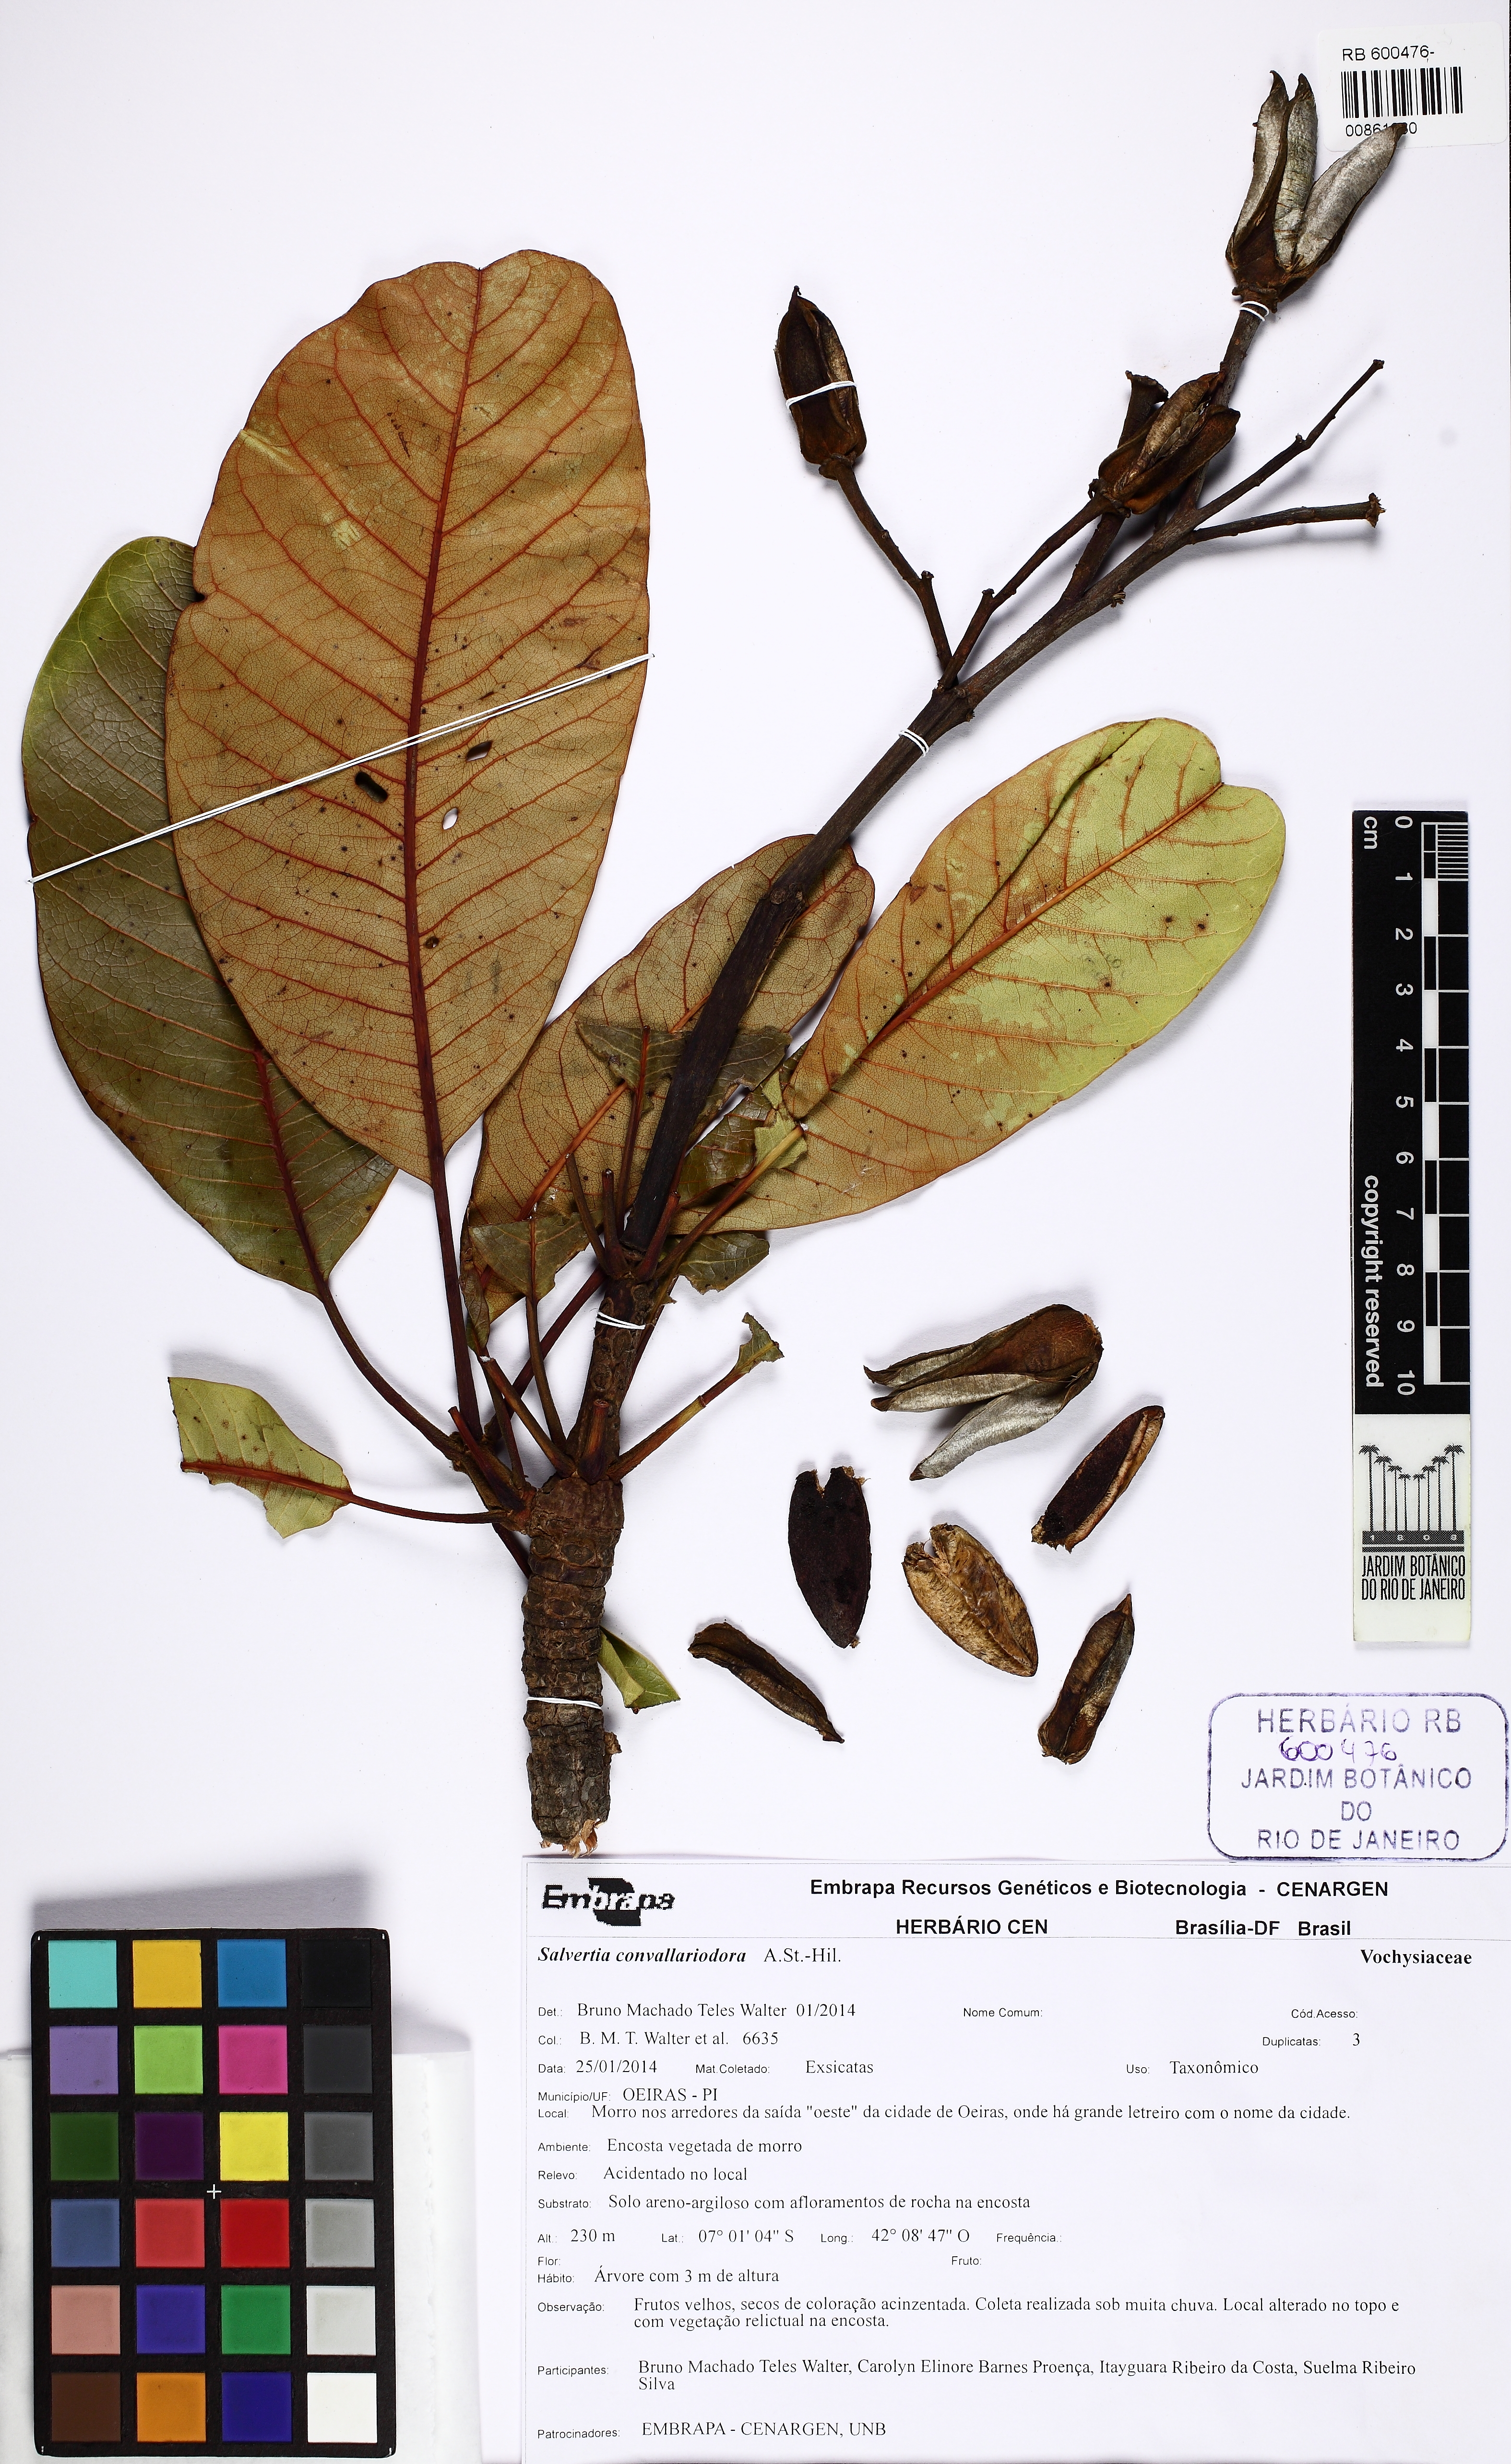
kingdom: Plantae
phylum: Tracheophyta
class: Magnoliopsida
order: Myrtales
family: Vochysiaceae
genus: Salvertia
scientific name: Salvertia convallariodora
